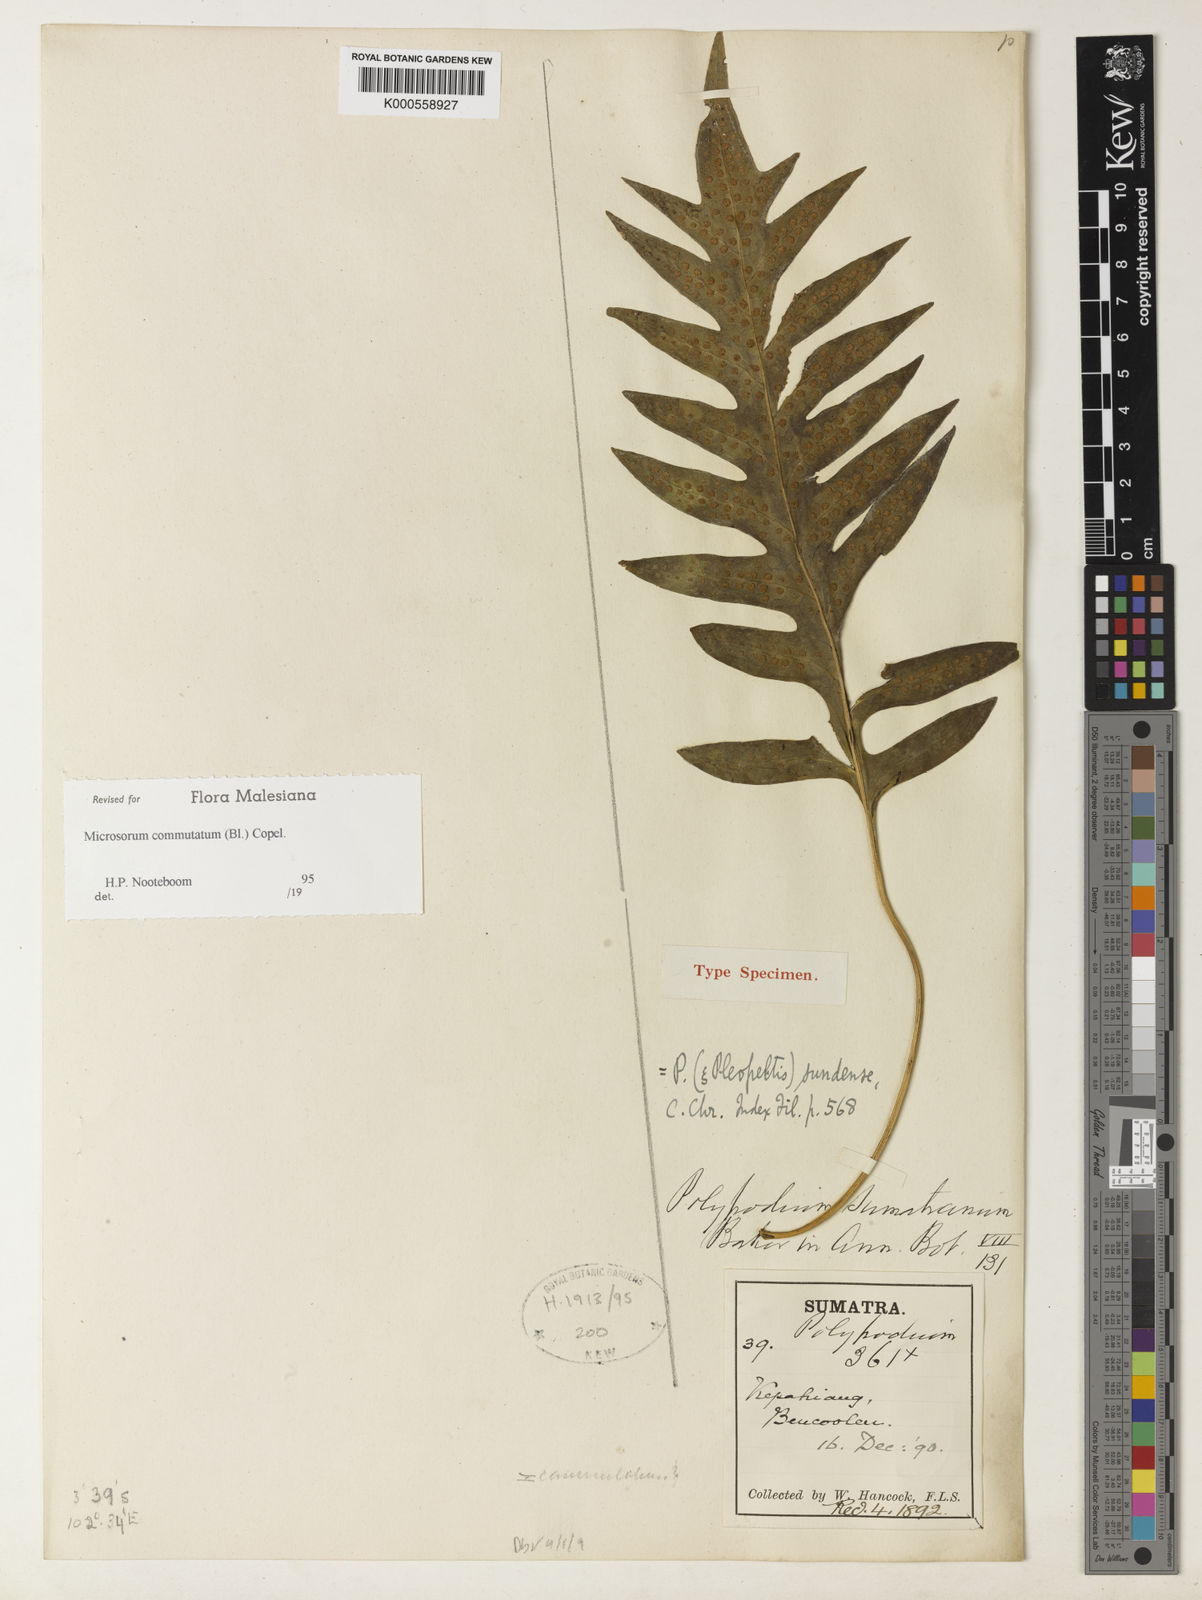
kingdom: Plantae
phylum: Tracheophyta
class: Polypodiopsida
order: Polypodiales
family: Polypodiaceae
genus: Microsorum
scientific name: Microsorum commutatum
